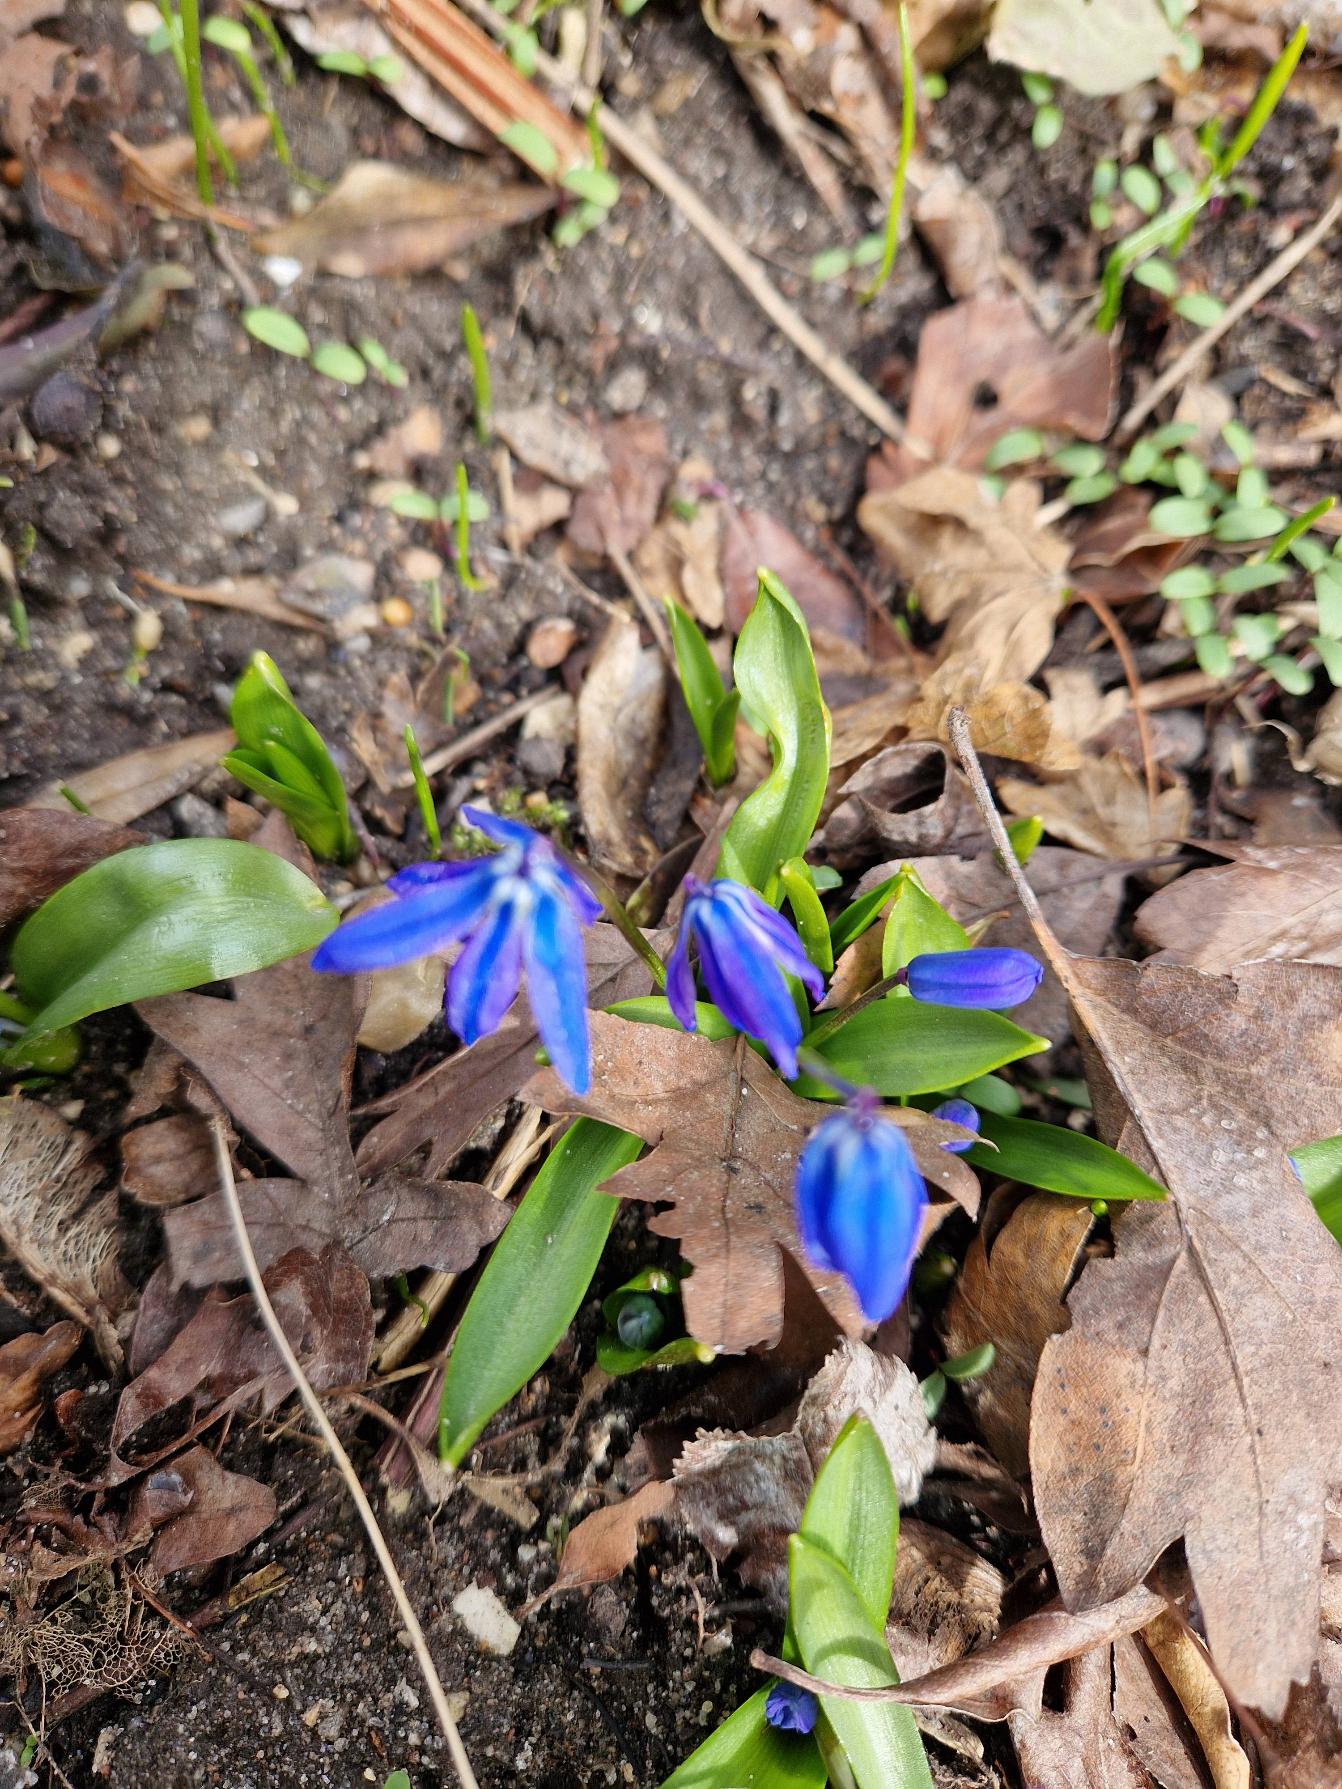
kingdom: Plantae
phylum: Tracheophyta
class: Liliopsida
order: Asparagales
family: Asparagaceae
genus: Scilla
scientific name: Scilla siberica
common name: Russisk skilla
